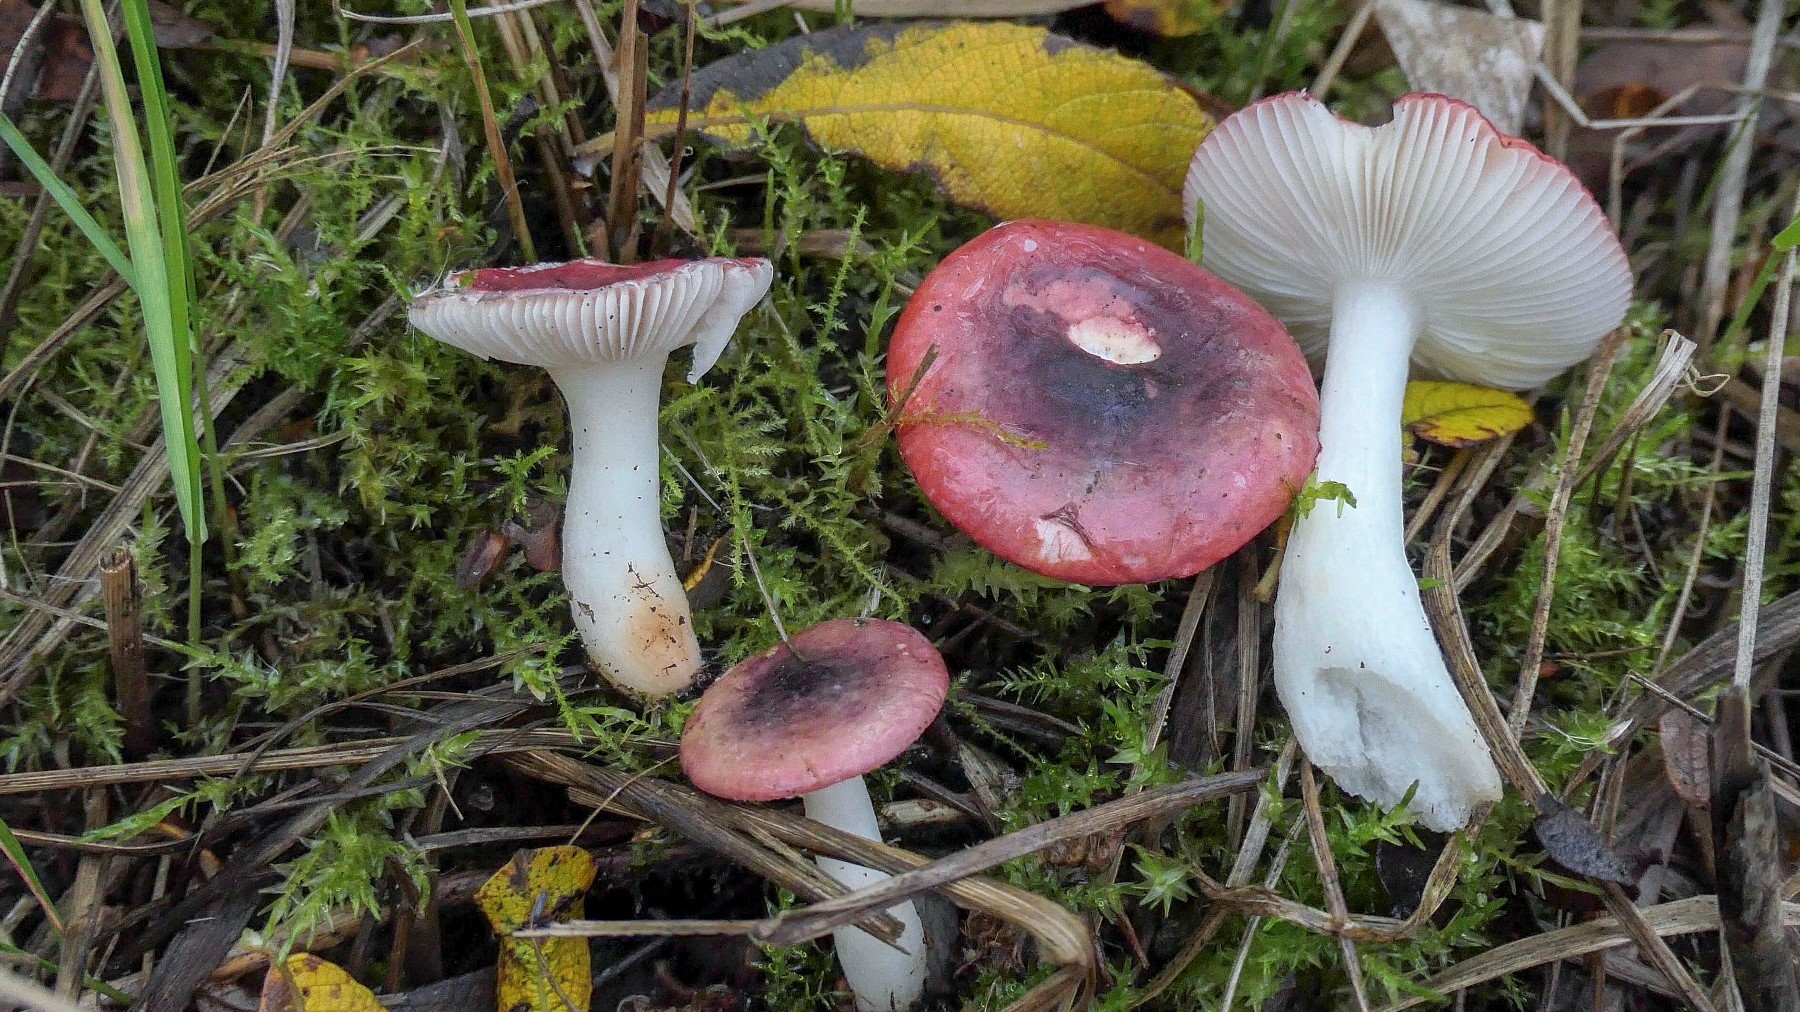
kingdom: Fungi
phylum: Basidiomycota
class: Agaricomycetes
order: Russulales
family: Russulaceae
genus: Russula
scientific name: Russula laccata
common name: klit-skørhat
